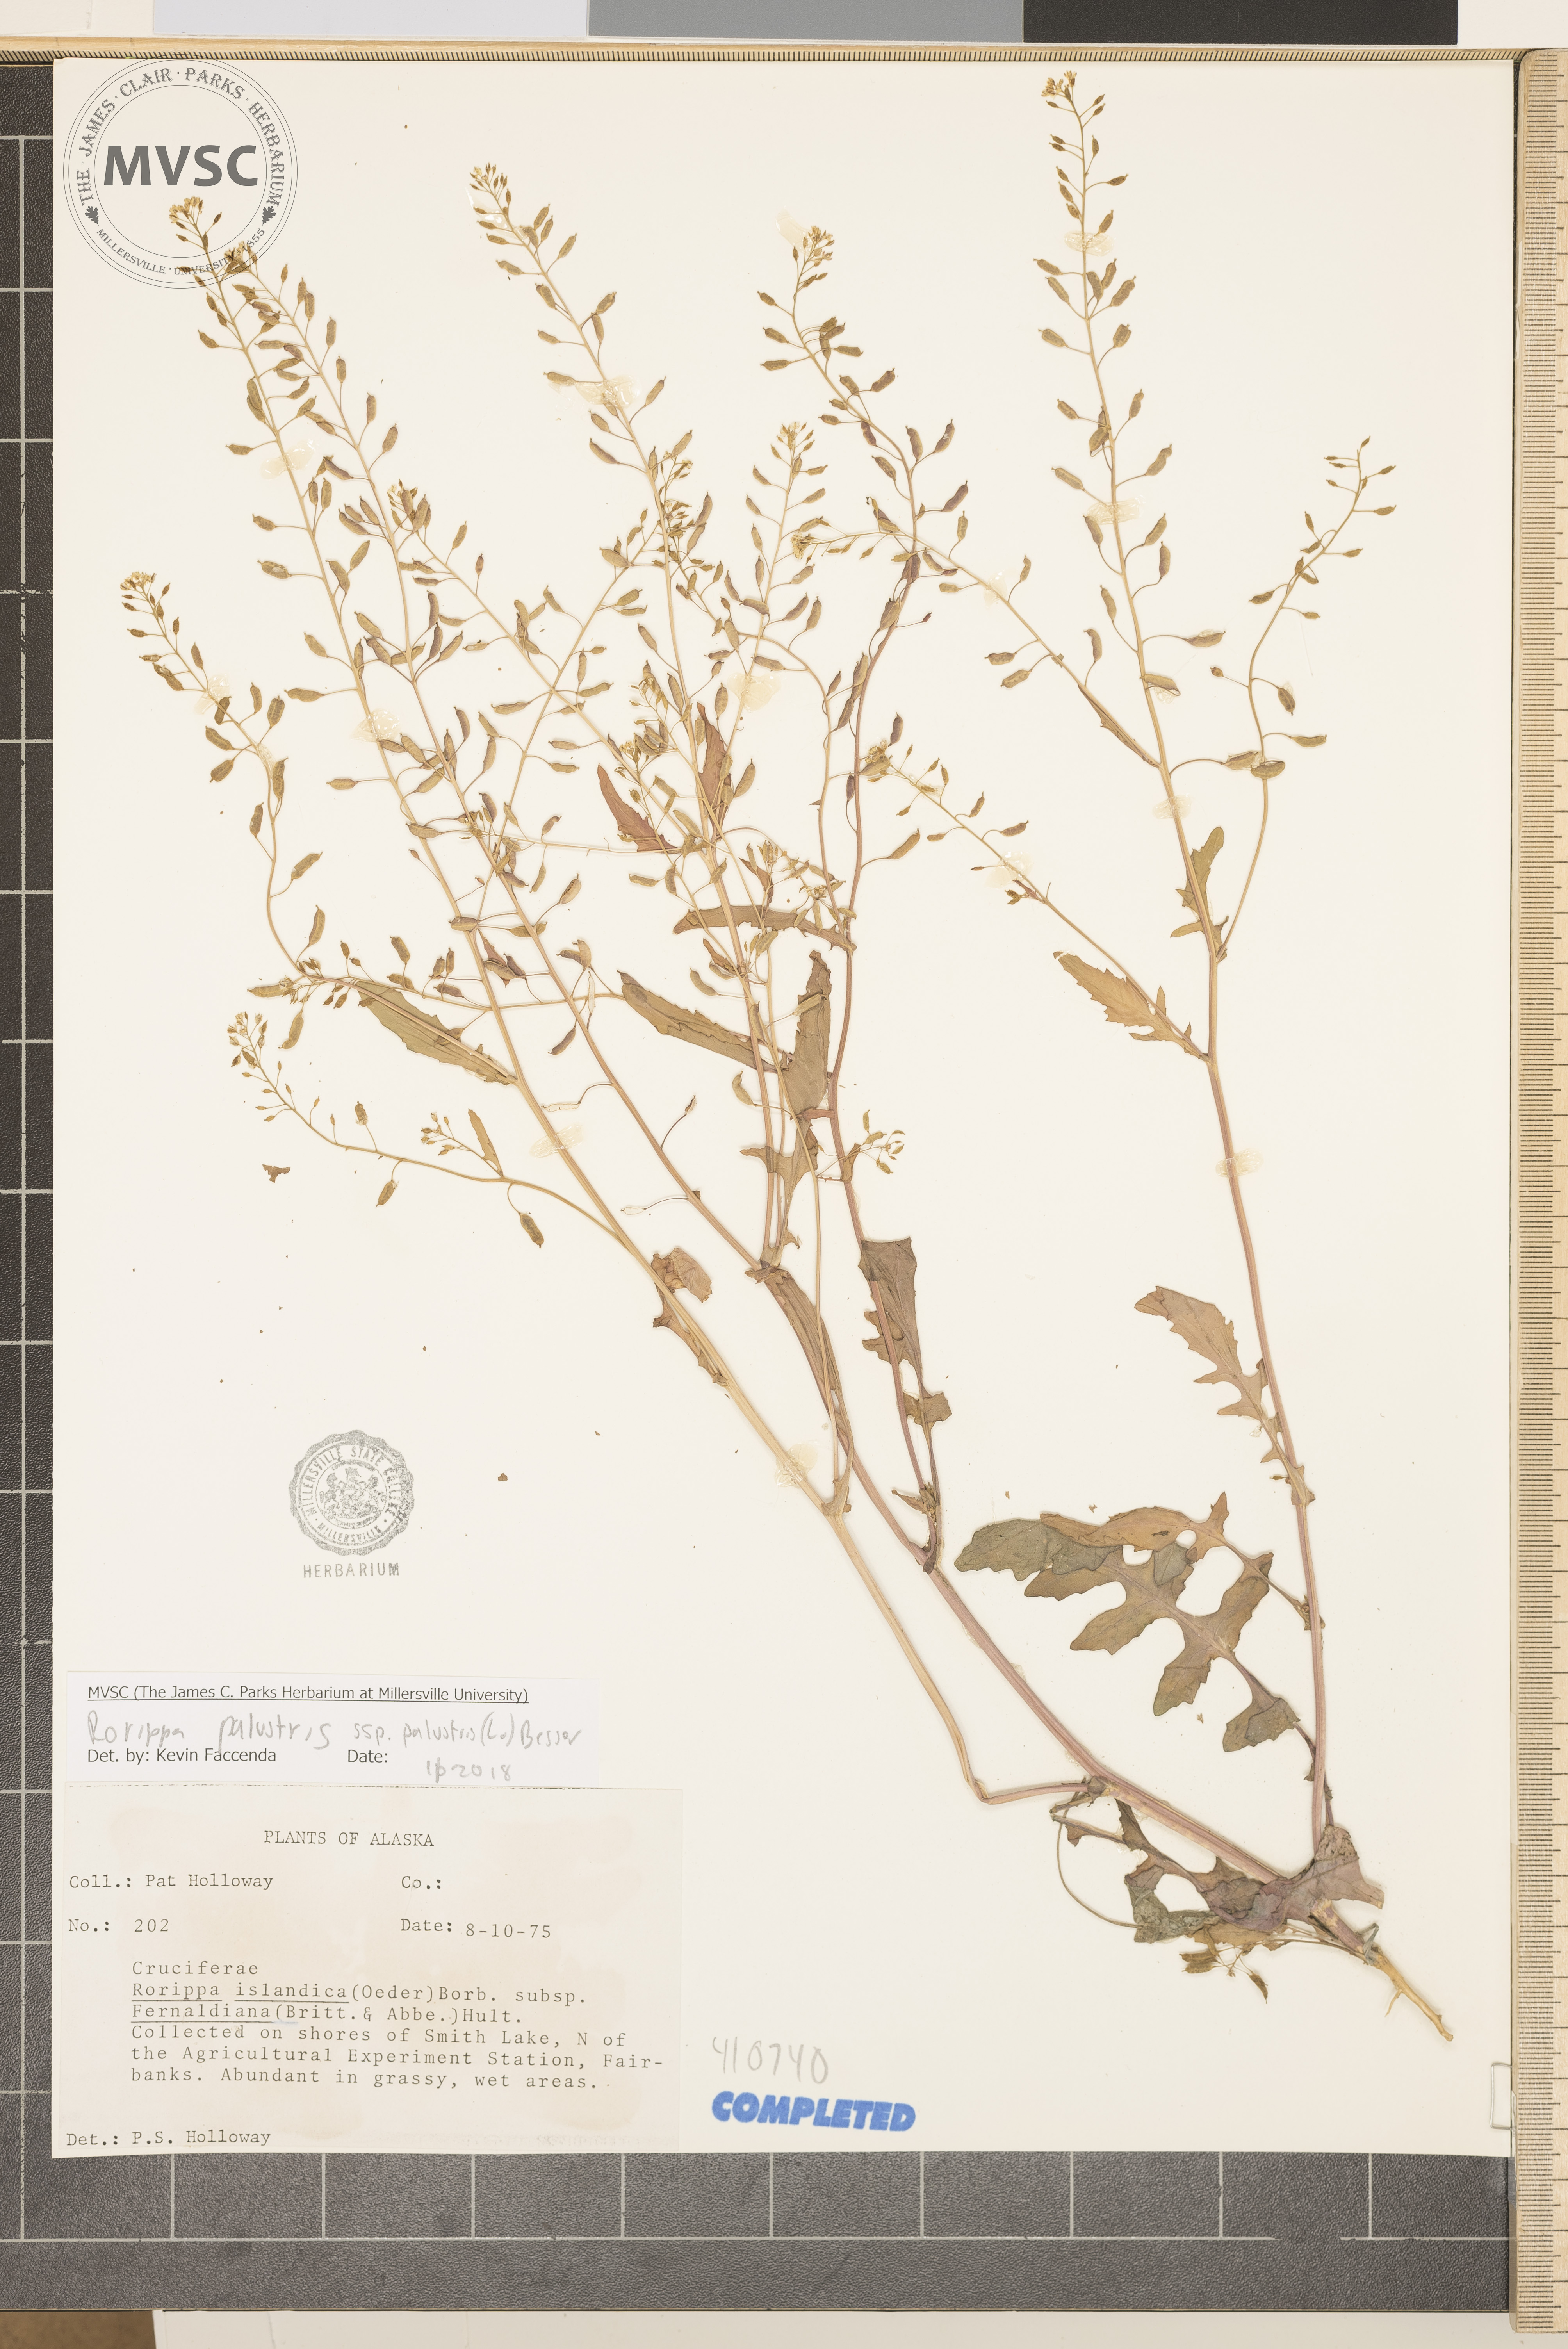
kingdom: Plantae
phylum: Tracheophyta
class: Magnoliopsida
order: Brassicales
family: Brassicaceae
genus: Rorippa
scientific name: Rorippa palustris
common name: Northern Marsh Yellowcress
